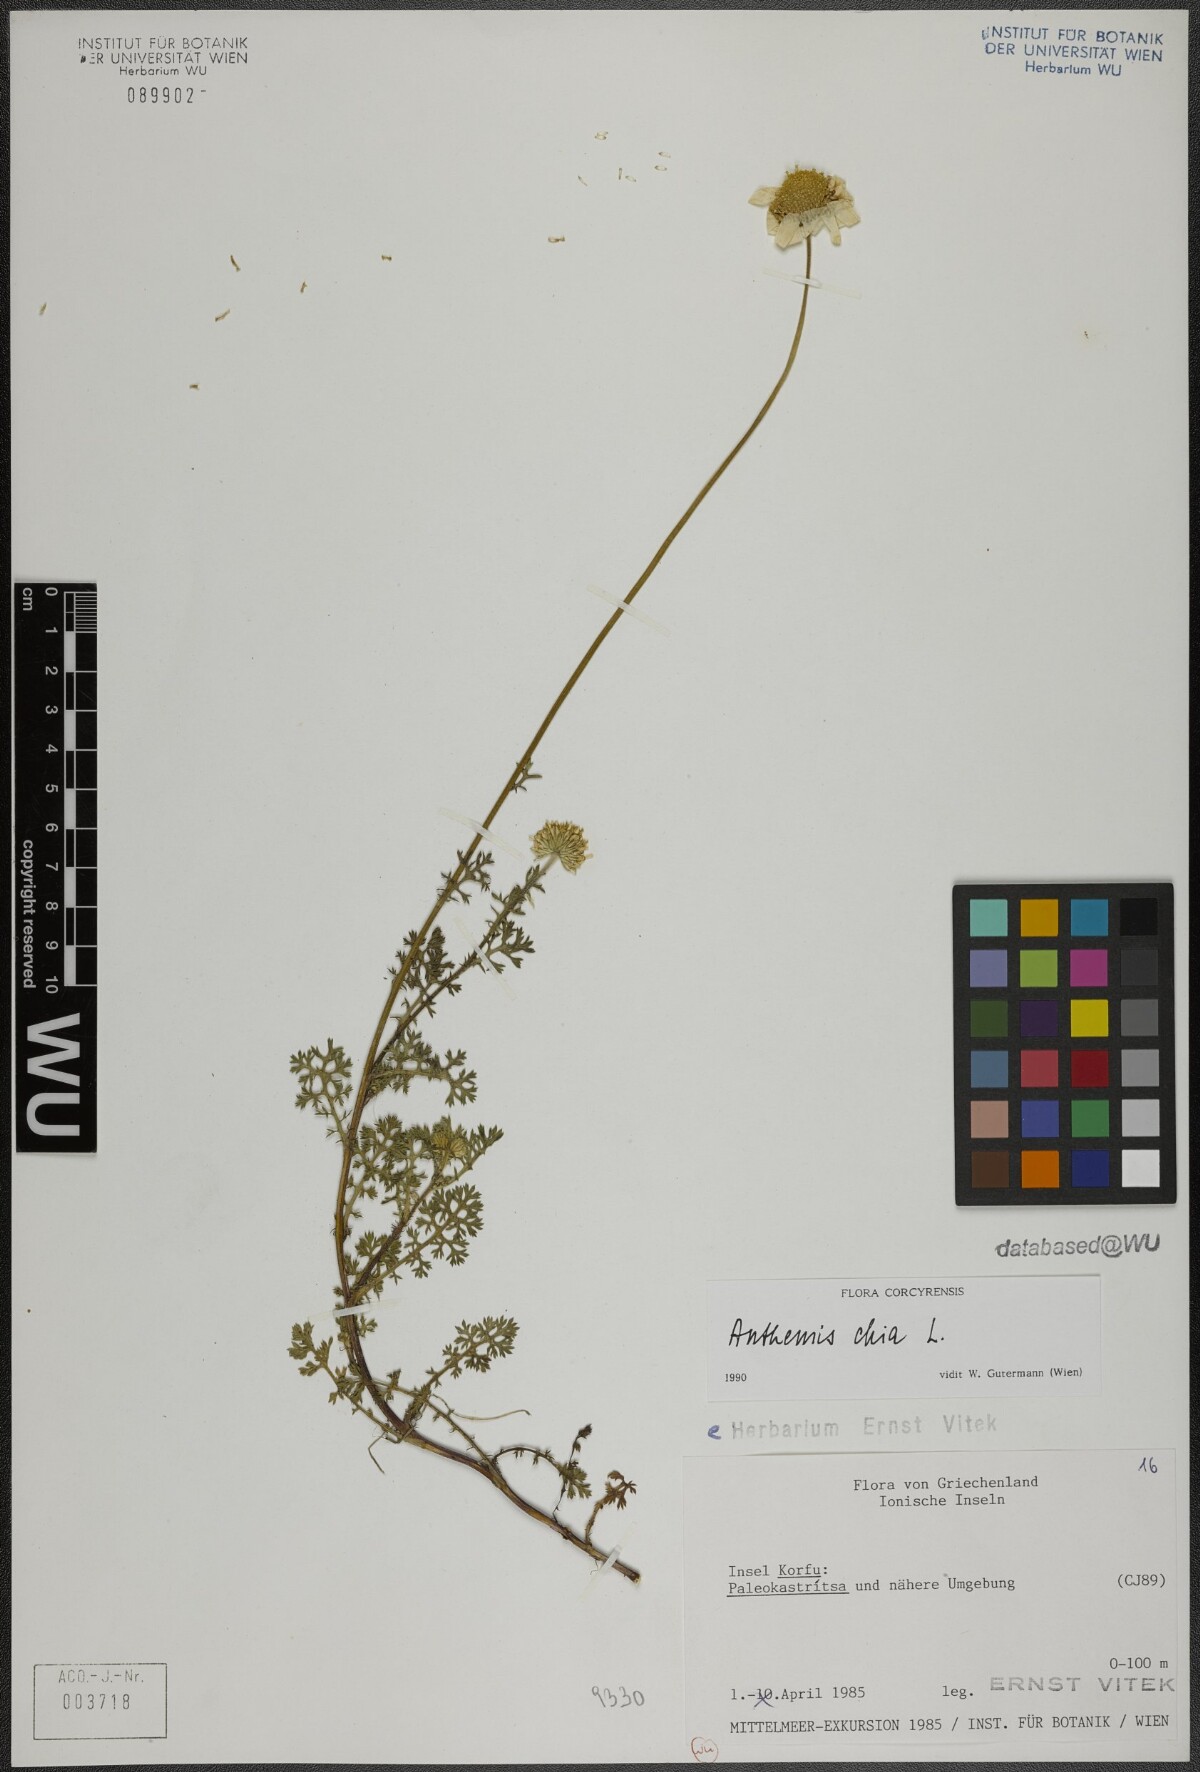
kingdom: Plantae
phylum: Tracheophyta
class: Magnoliopsida
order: Asterales
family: Asteraceae
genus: Anthemis
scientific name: Anthemis chia
